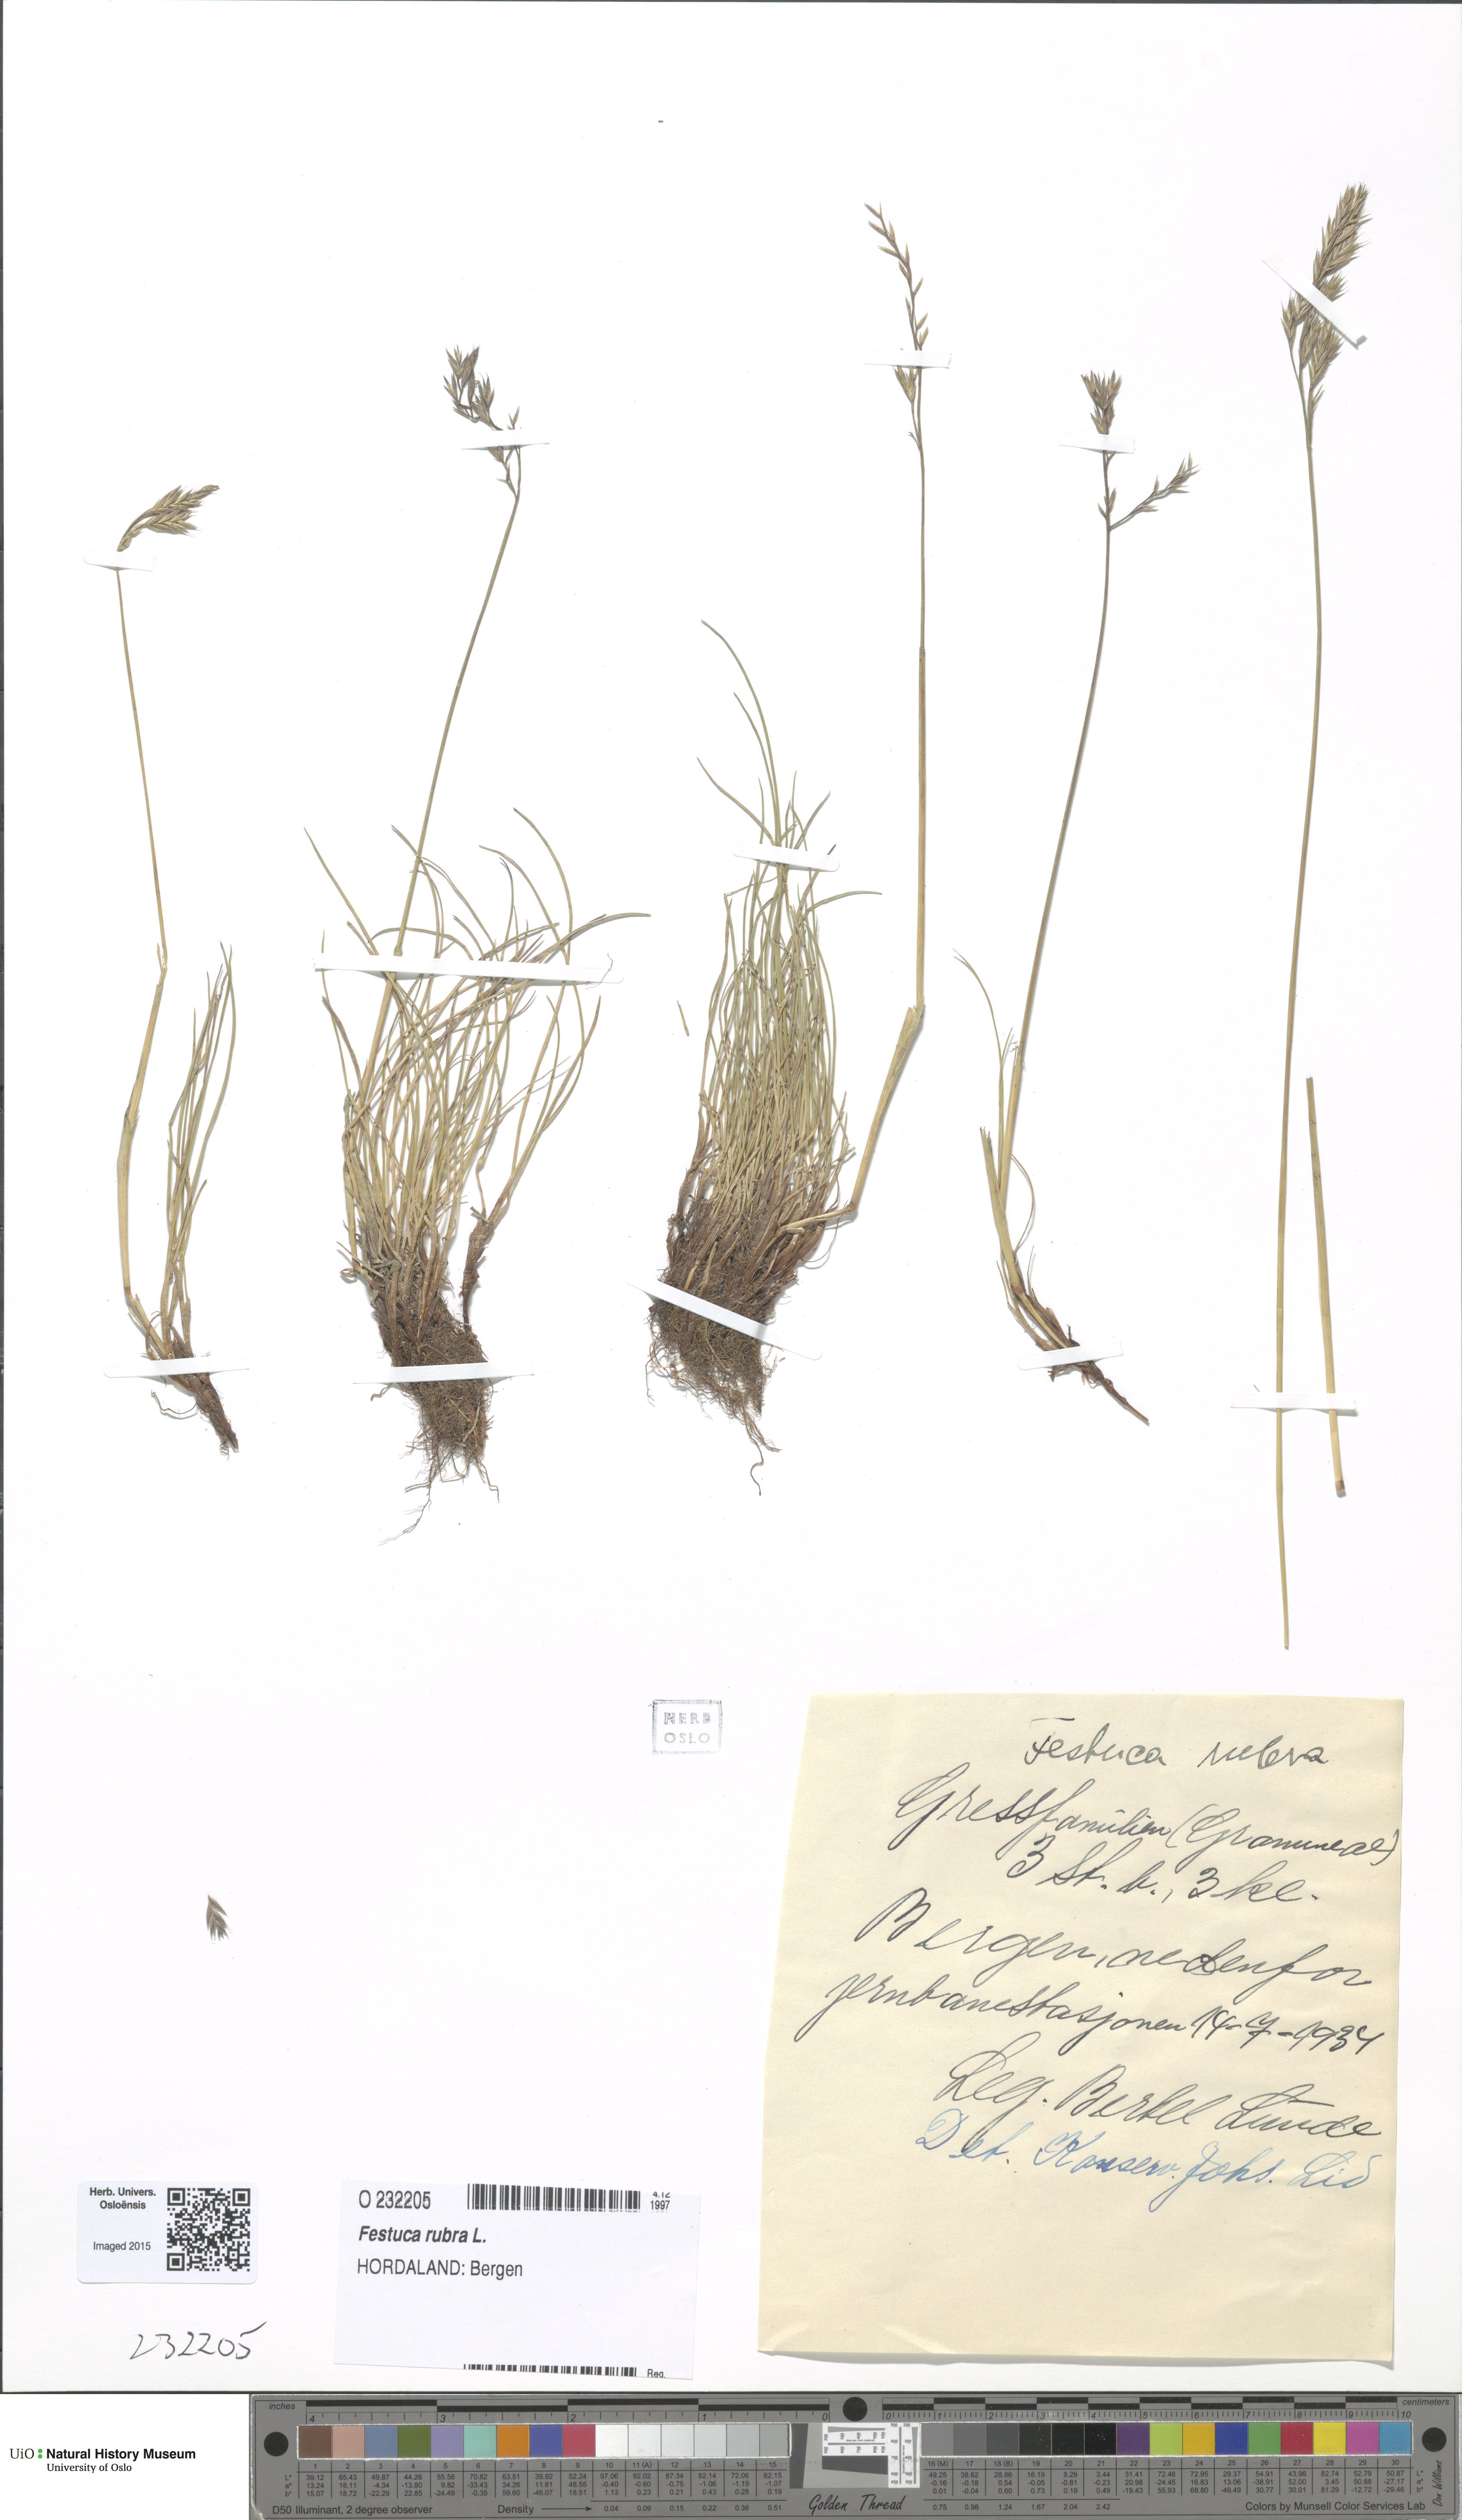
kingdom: Plantae
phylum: Tracheophyta
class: Liliopsida
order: Poales
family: Poaceae
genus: Festuca
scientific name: Festuca rubra
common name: Red fescue
